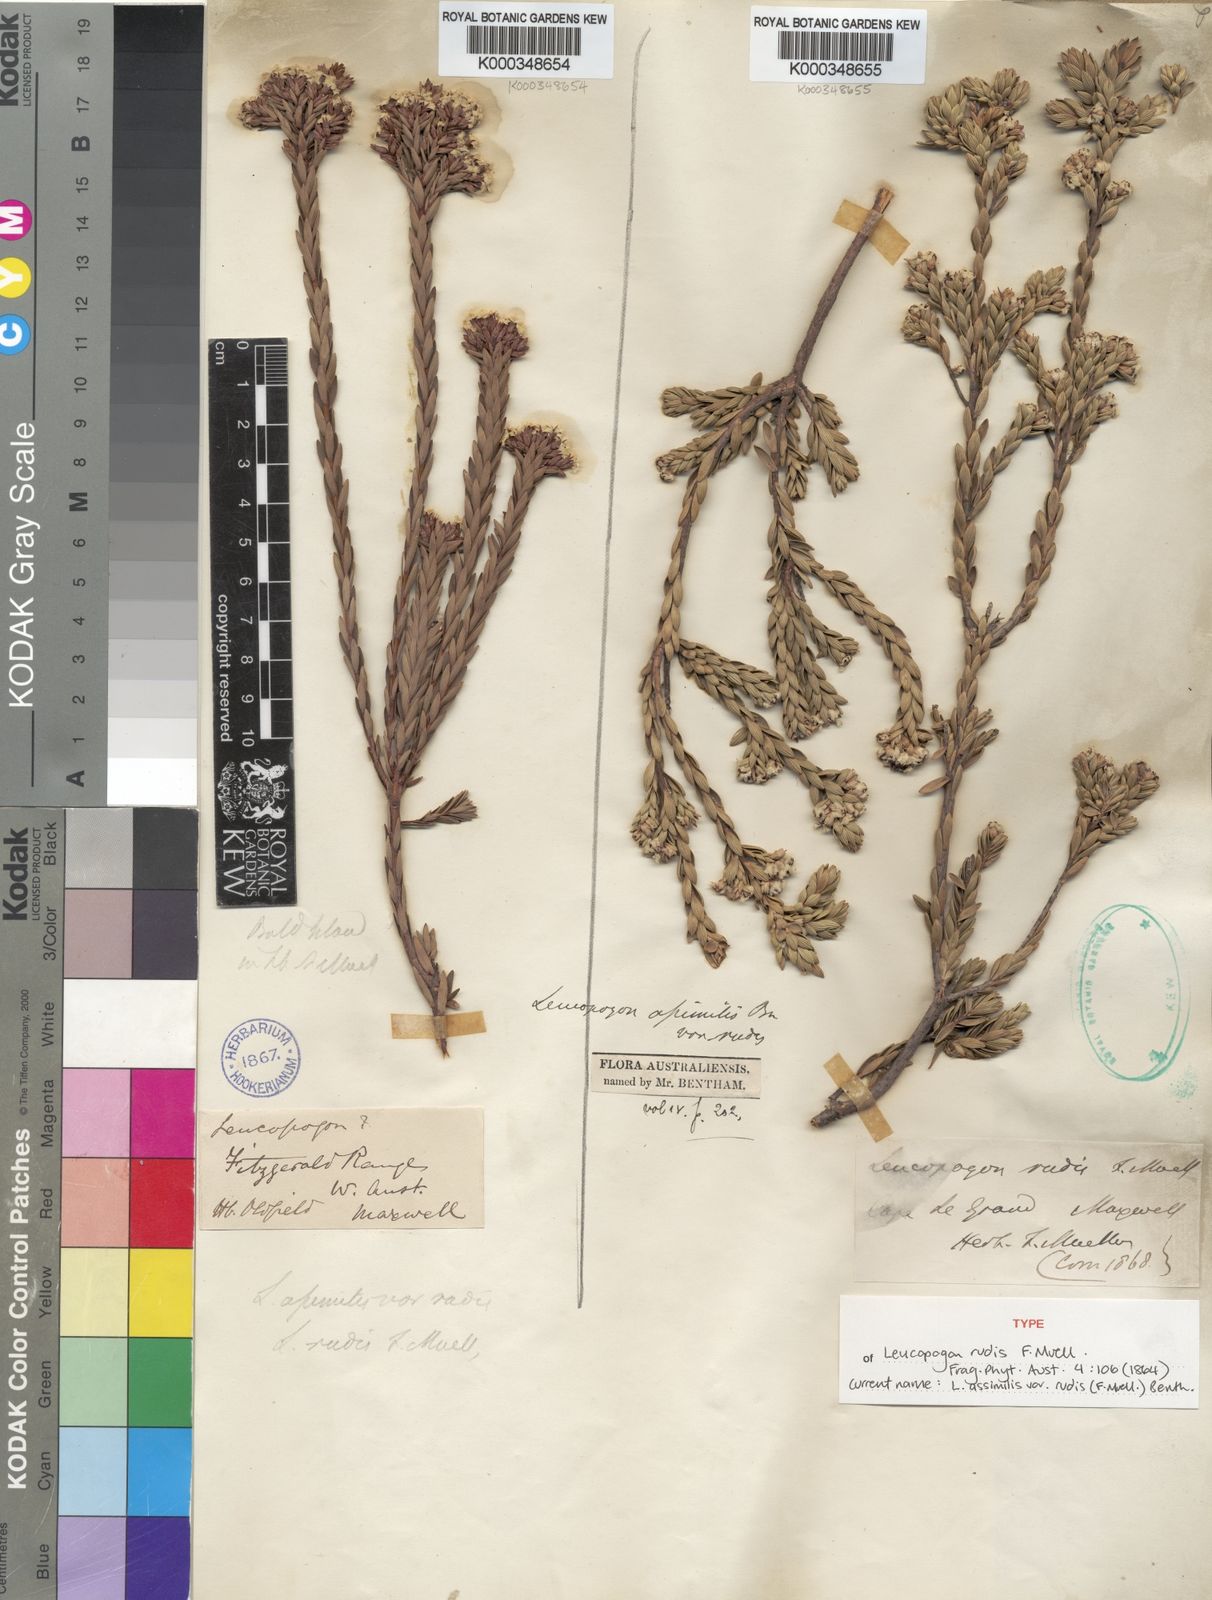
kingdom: Plantae
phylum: Tracheophyta
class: Magnoliopsida
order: Ericales
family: Ericaceae
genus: Leucopogon
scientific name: Leucopogon assimilis
